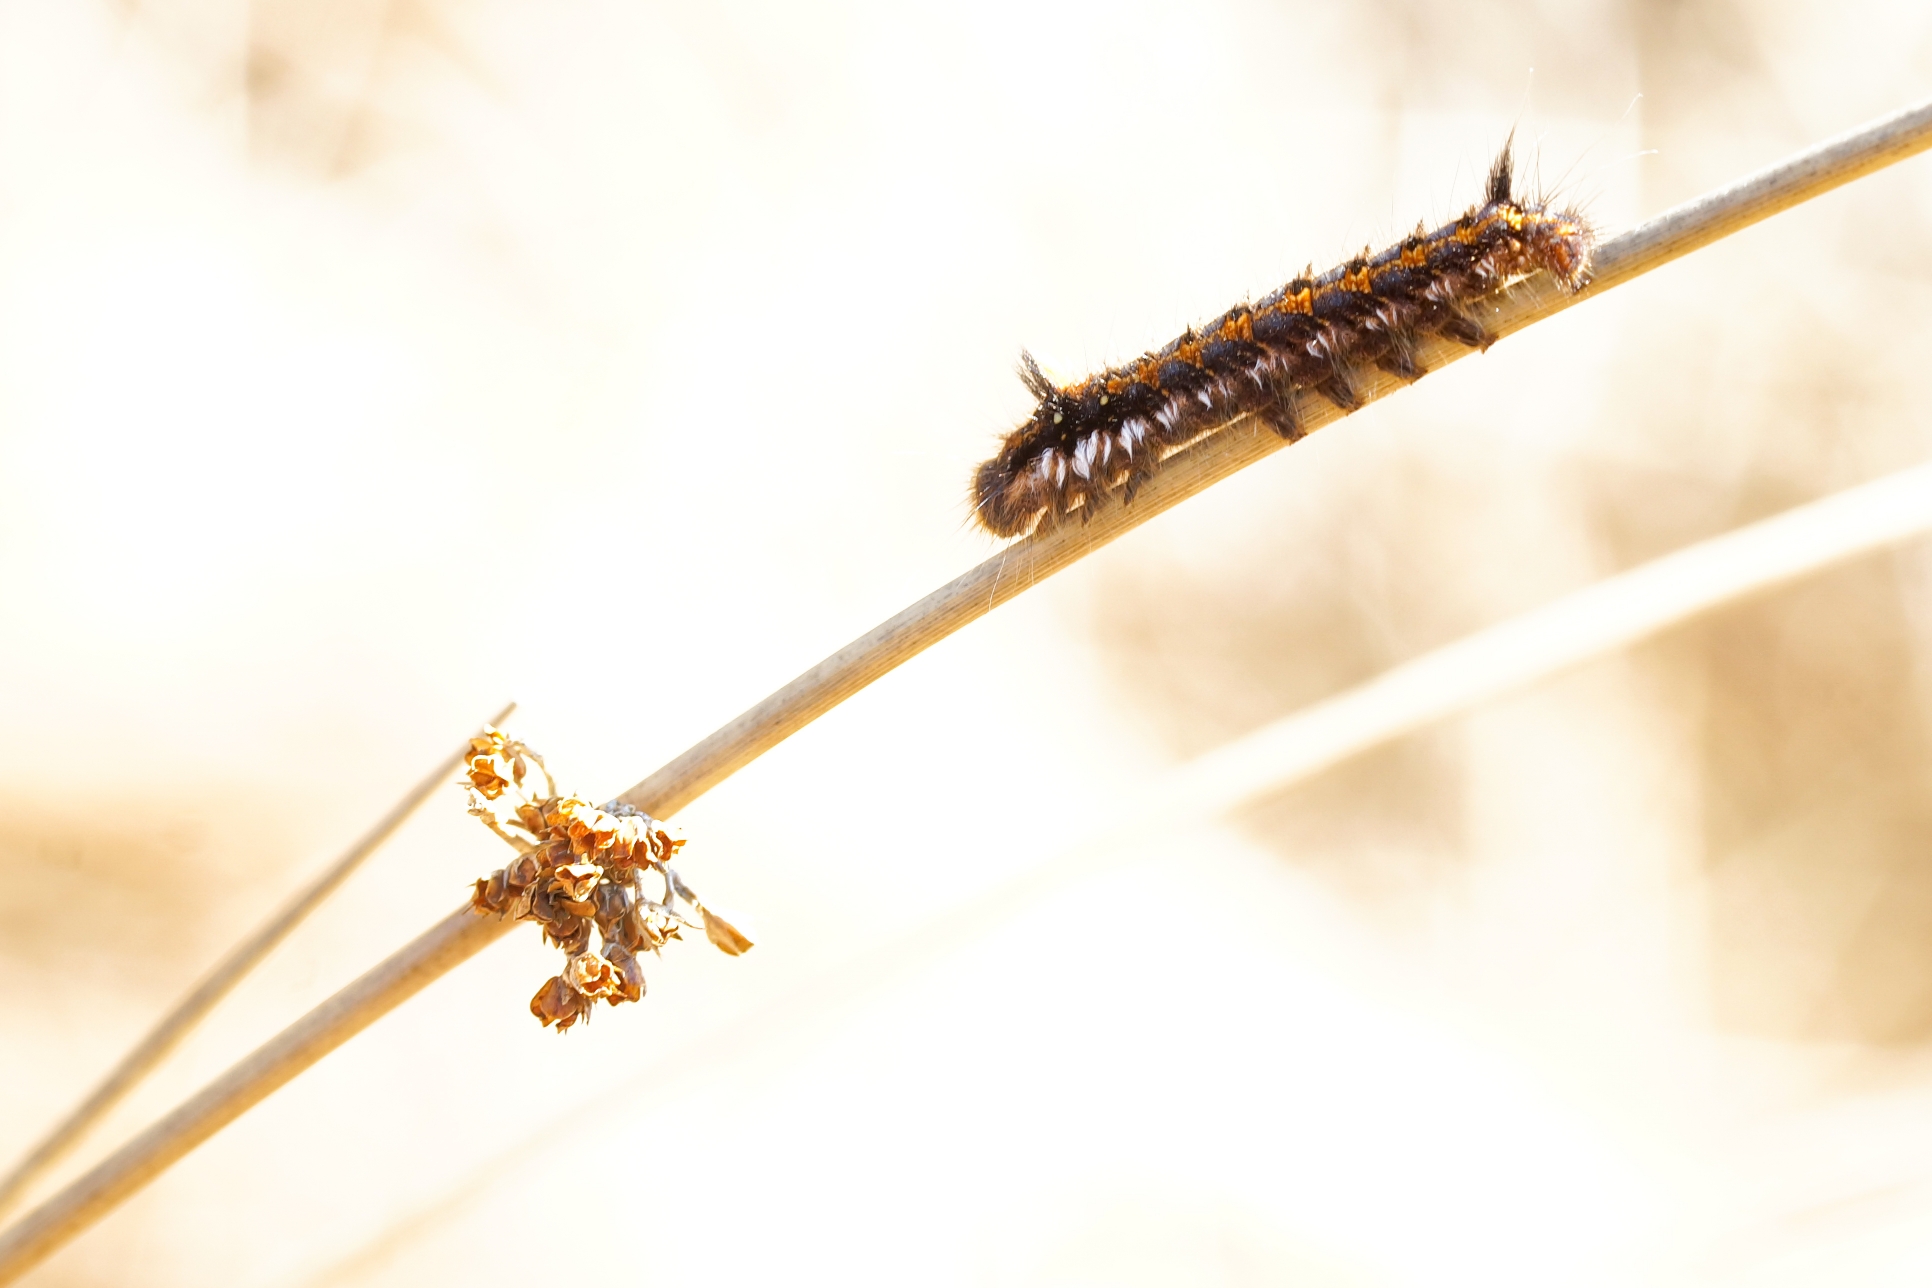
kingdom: Animalia
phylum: Arthropoda
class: Insecta
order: Lepidoptera
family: Lasiocampidae
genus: Euthrix
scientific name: Euthrix potatoria
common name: Græsspinder
